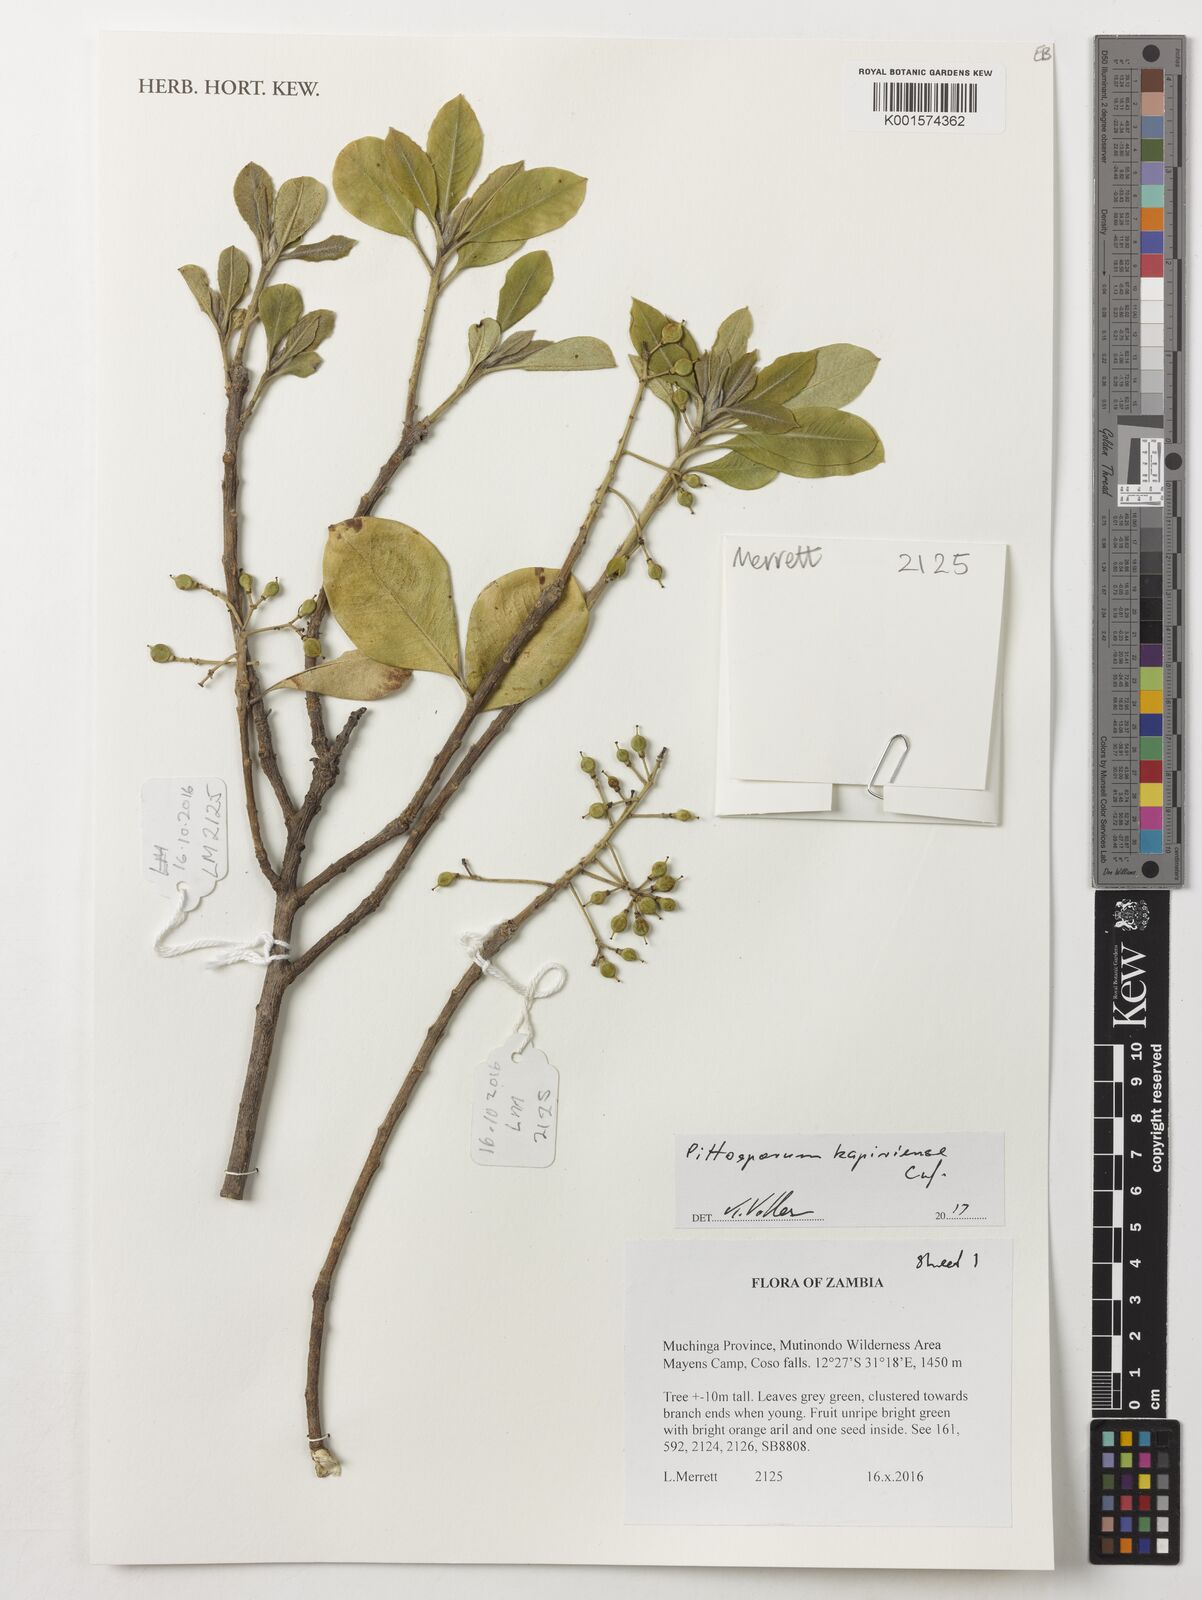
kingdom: Plantae
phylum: Tracheophyta
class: Magnoliopsida
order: Apiales
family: Pittosporaceae
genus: Pittosporum
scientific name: Pittosporum viridiflorum
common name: Cape cheesewood
